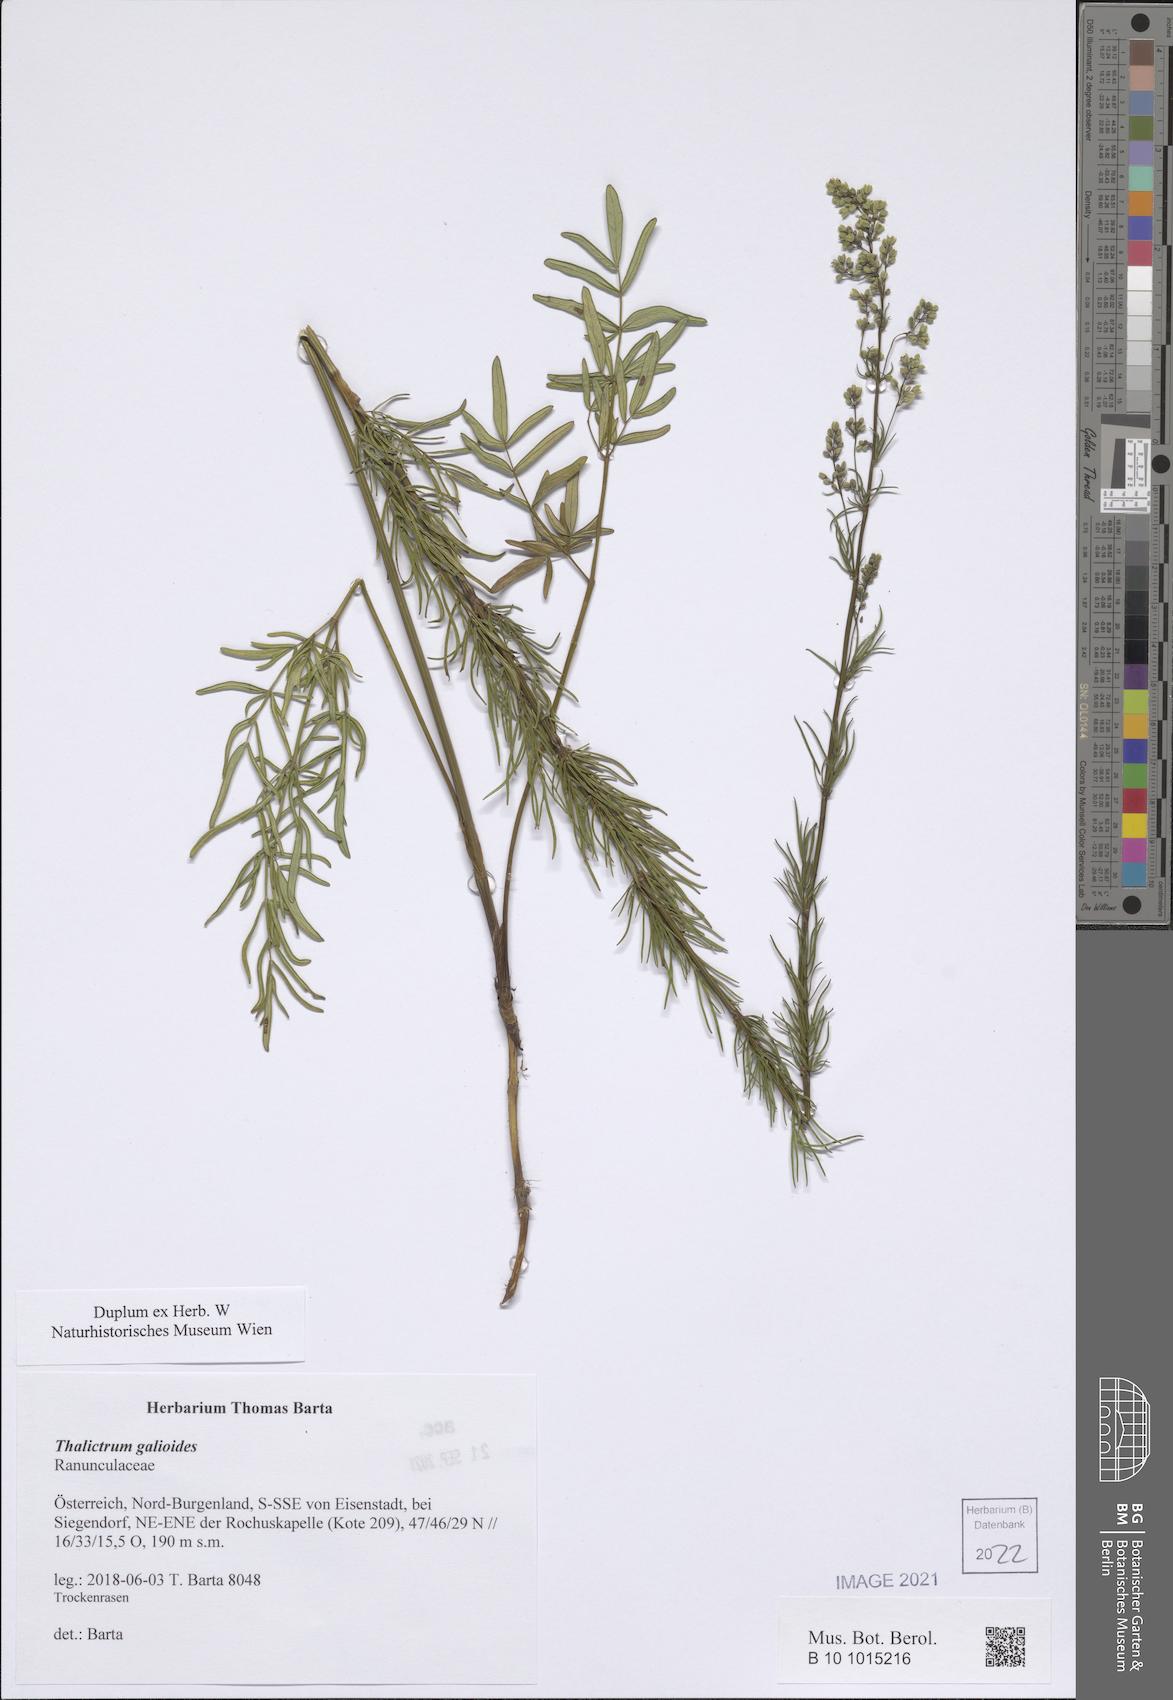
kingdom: Plantae
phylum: Tracheophyta
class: Magnoliopsida
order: Ranunculales
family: Ranunculaceae
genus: Thalictrum
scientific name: Thalictrum simplex
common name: Small meadow-rue
